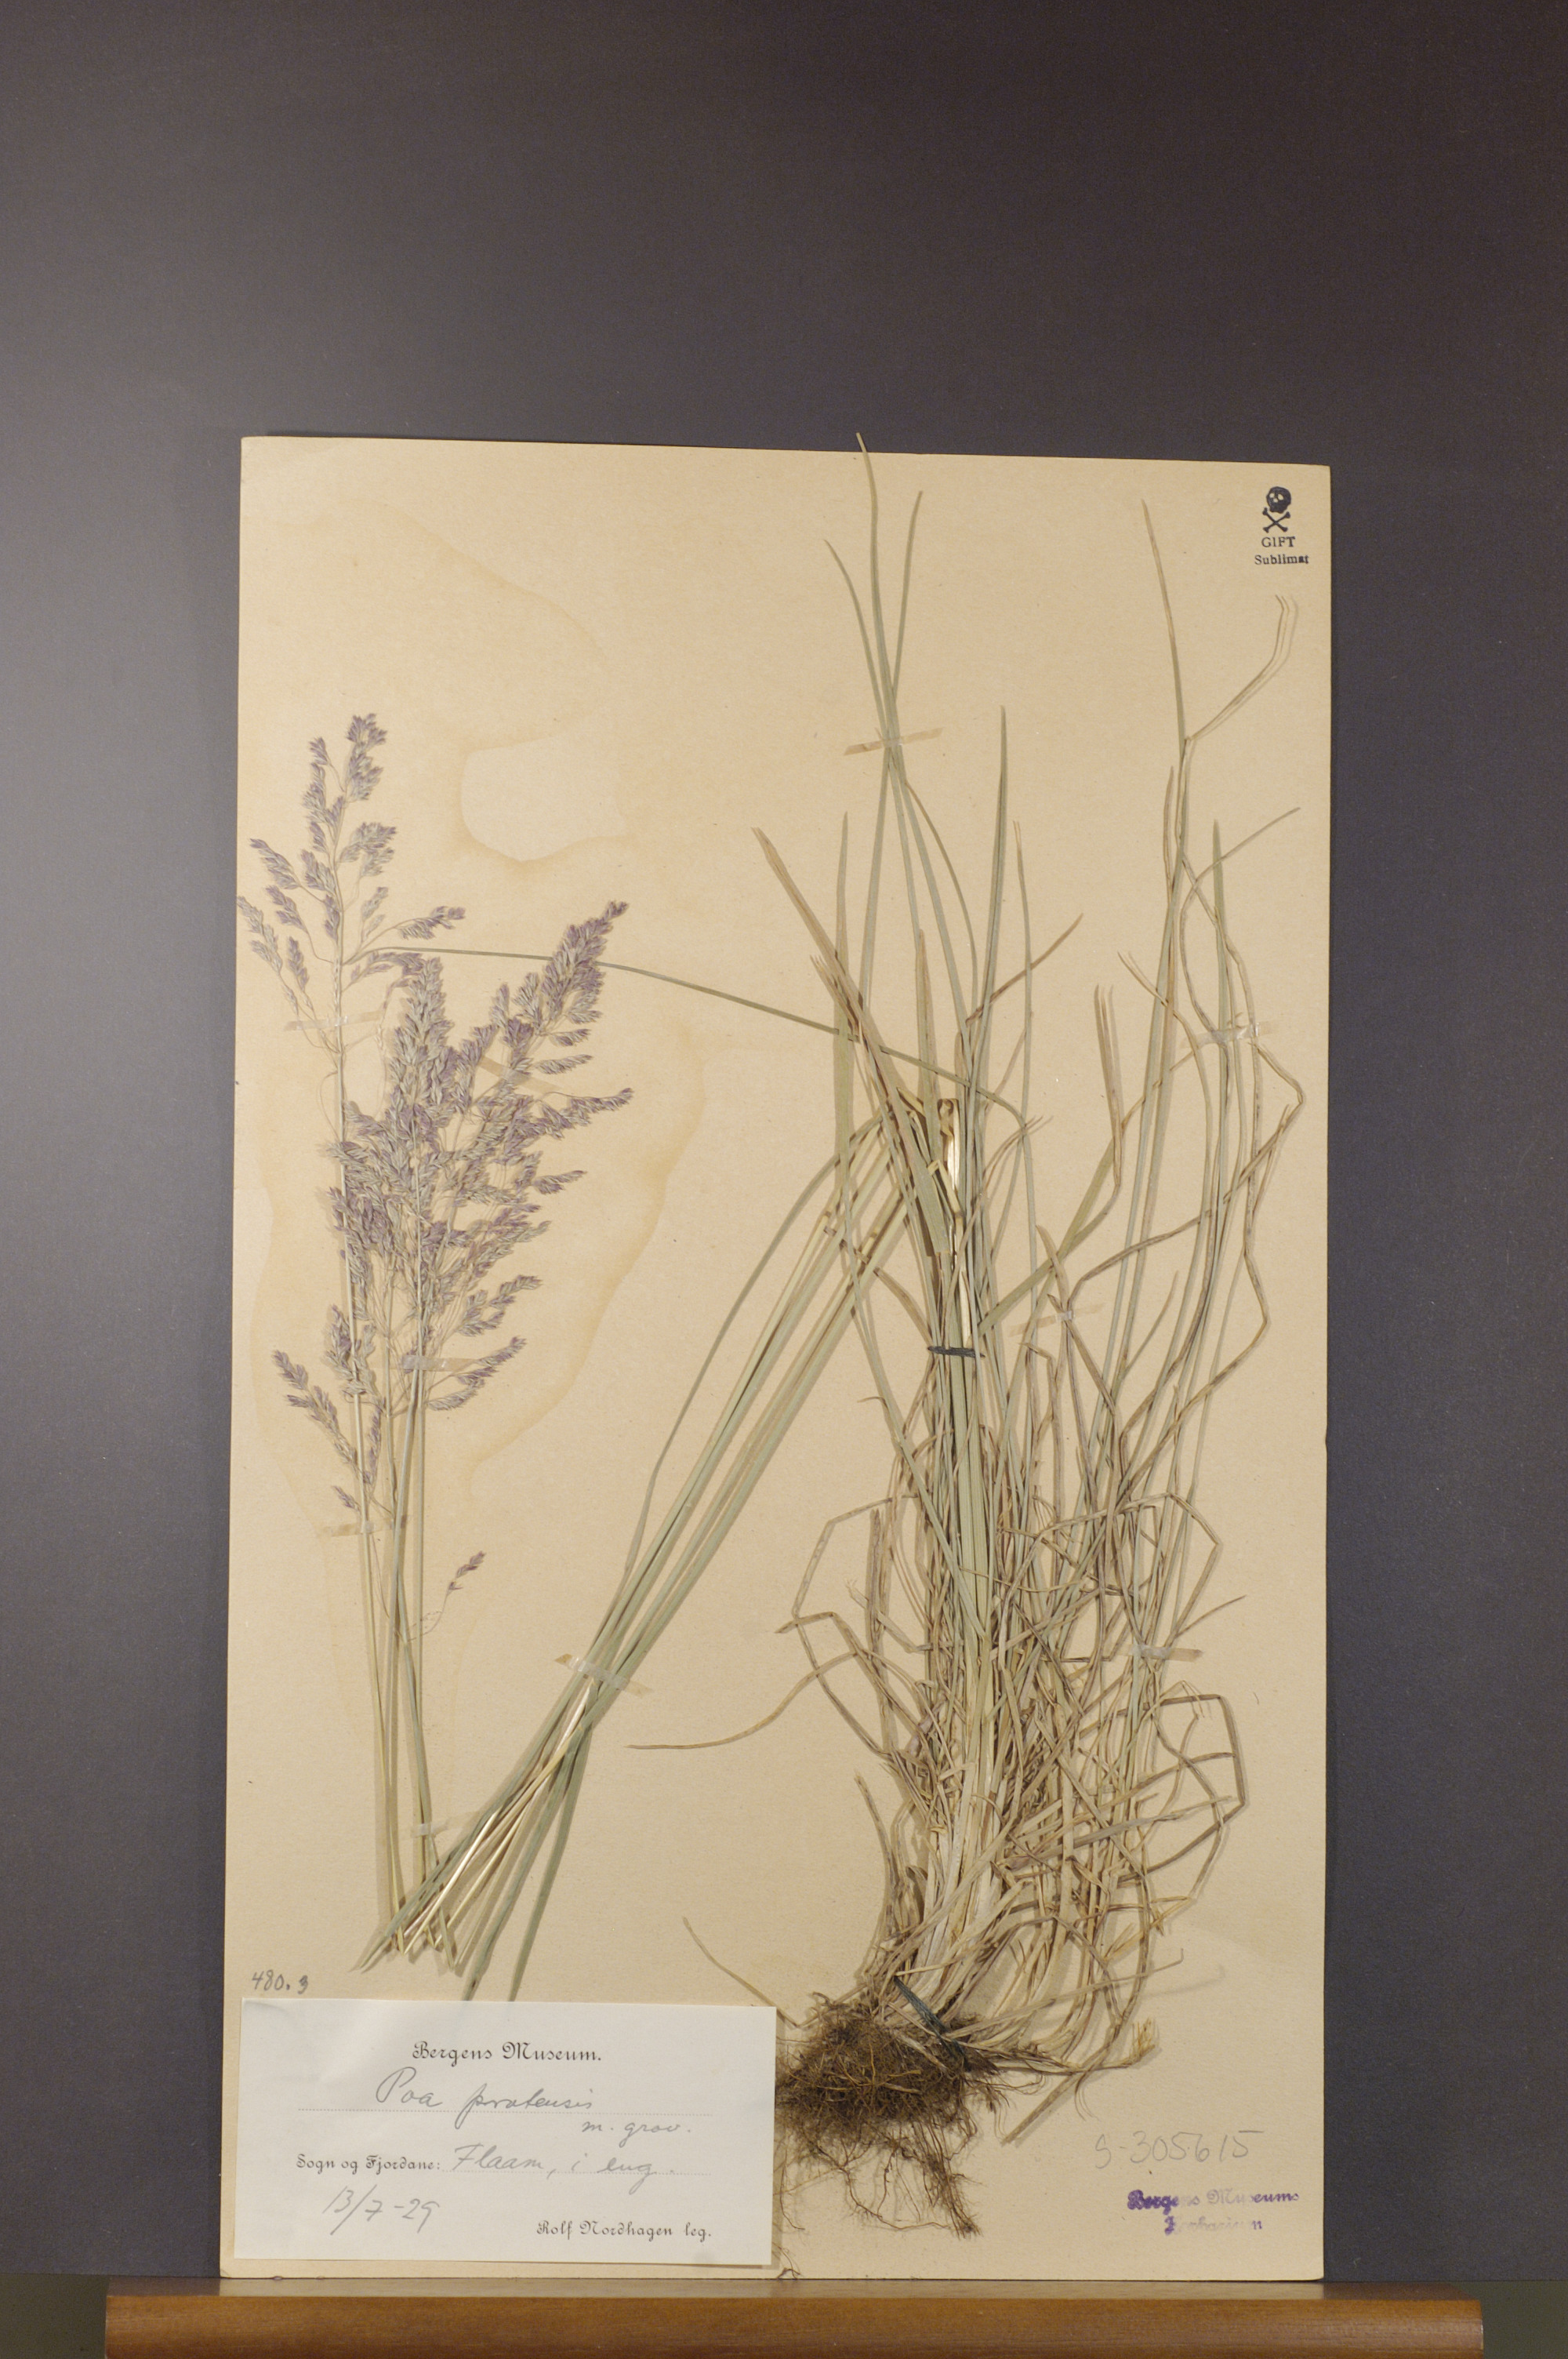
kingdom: Plantae
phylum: Tracheophyta
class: Liliopsida
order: Poales
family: Poaceae
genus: Poa
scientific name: Poa pratensis
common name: Kentucky bluegrass
